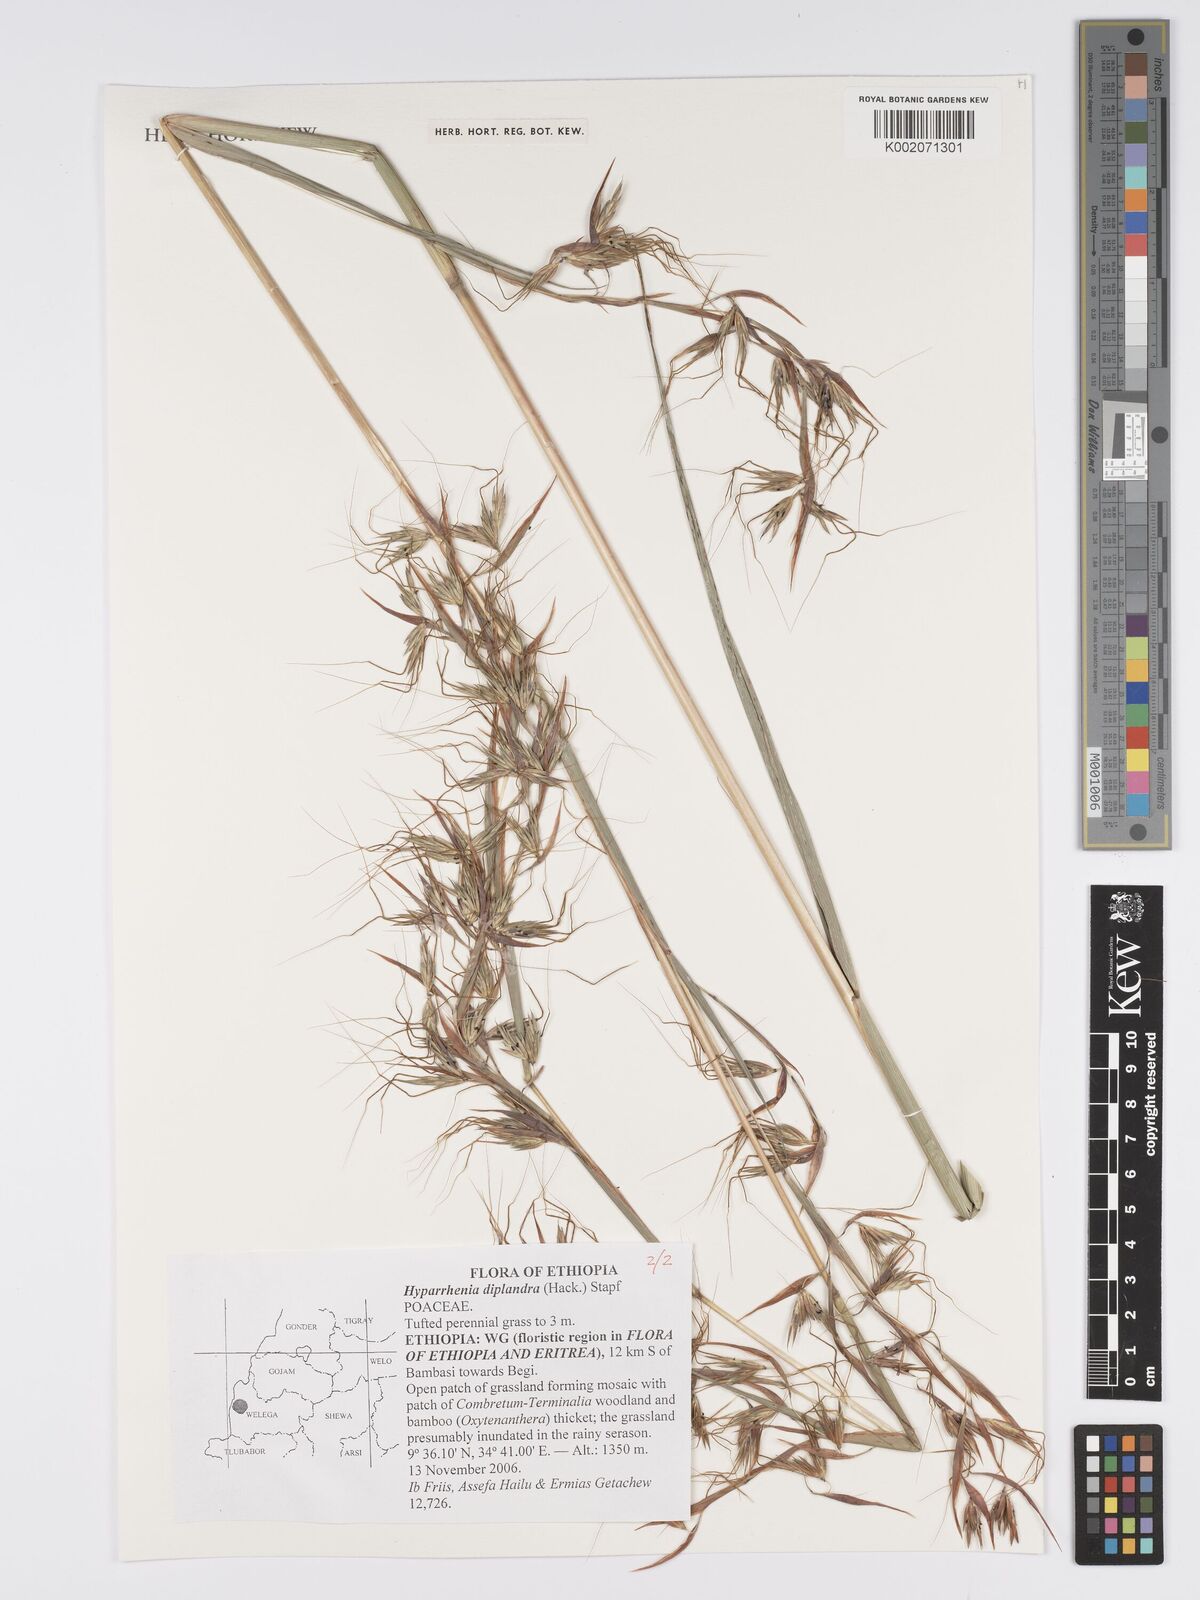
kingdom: Plantae
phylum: Tracheophyta
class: Liliopsida
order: Poales
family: Poaceae
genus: Hyparrhenia
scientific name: Hyparrhenia diplandra
